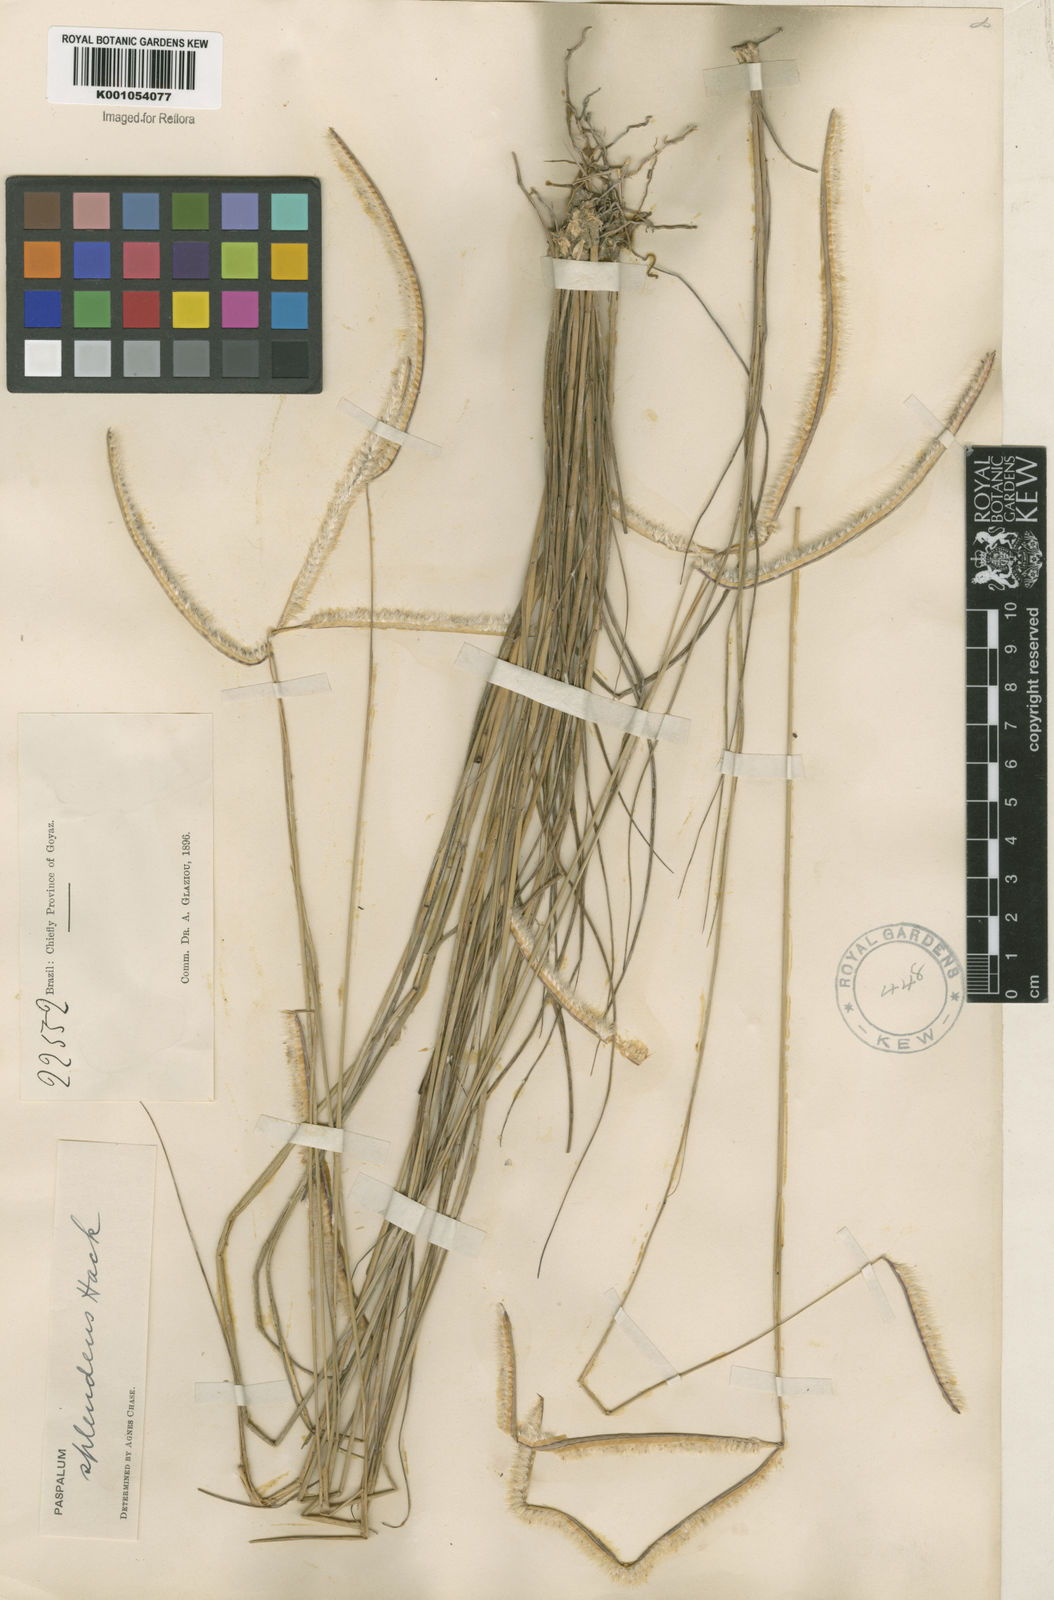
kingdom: Plantae
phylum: Tracheophyta
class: Liliopsida
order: Poales
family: Poaceae
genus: Paspalum
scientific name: Paspalum eucomum
